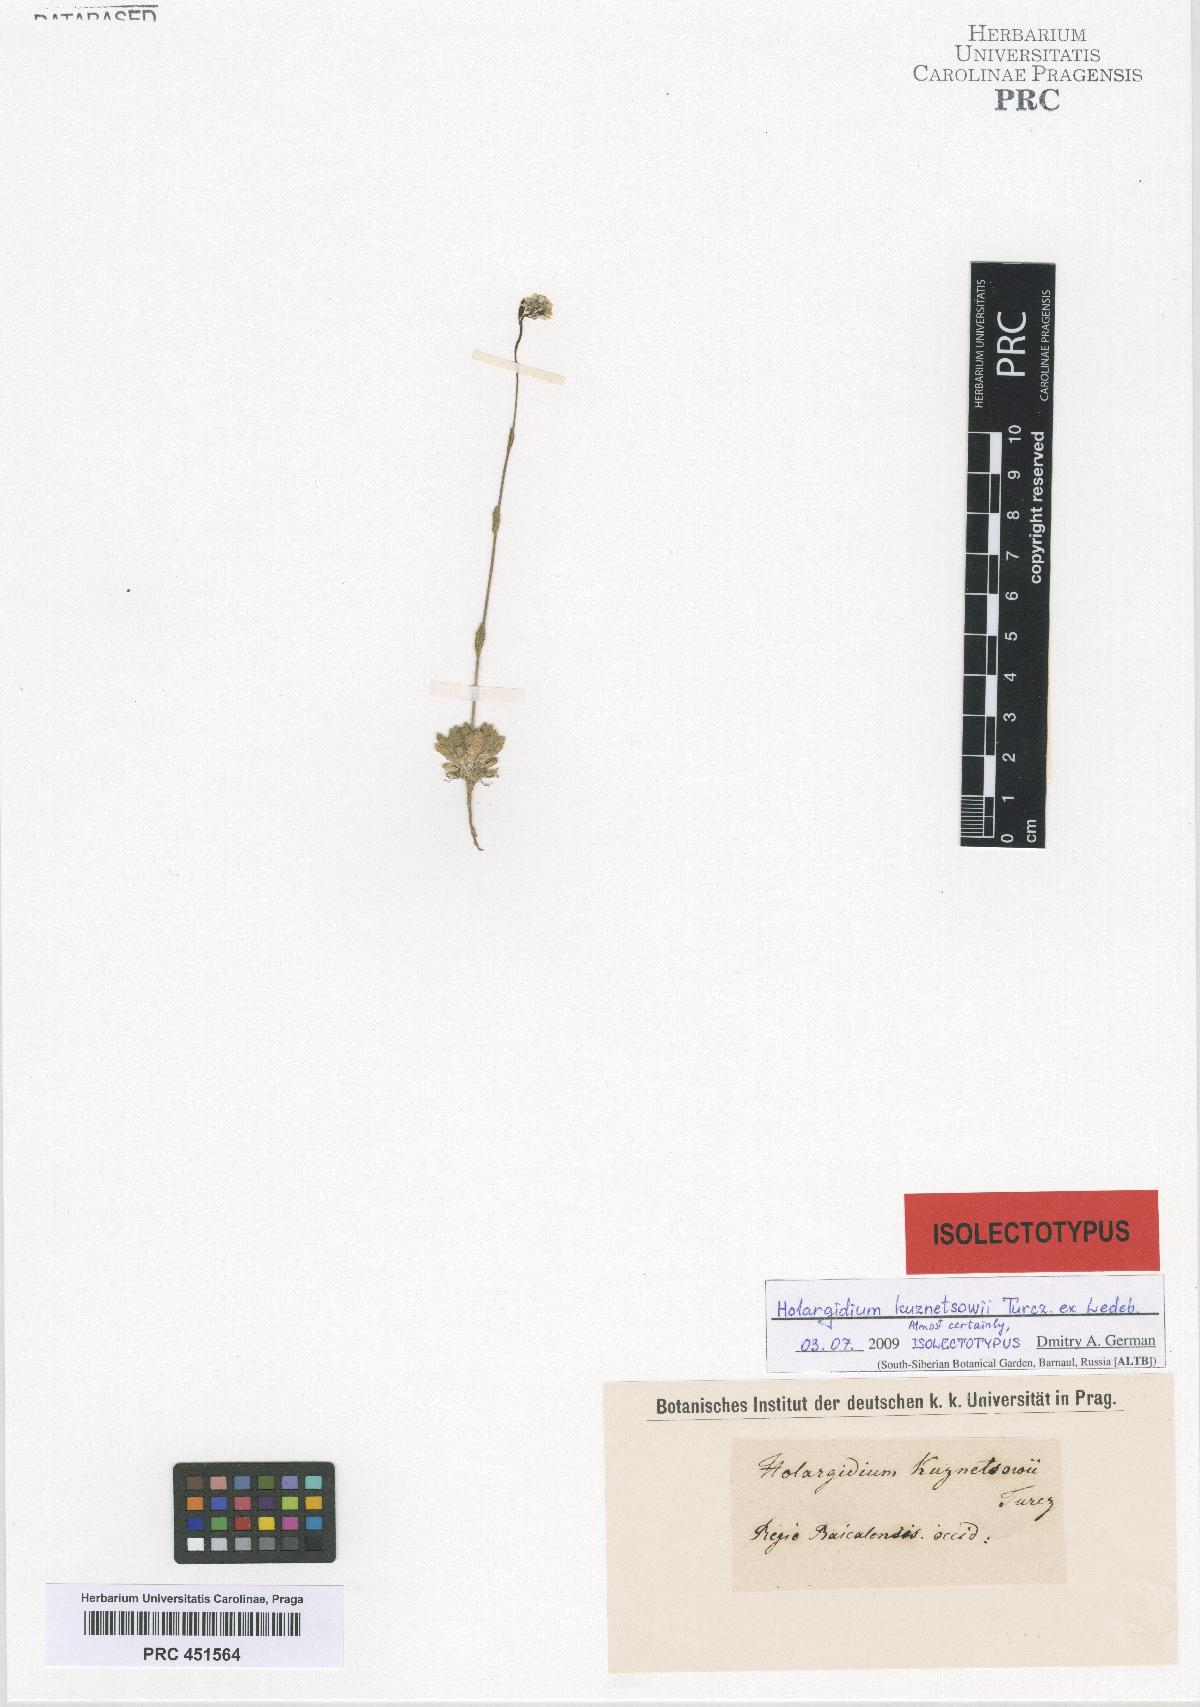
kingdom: Plantae
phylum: Tracheophyta
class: Magnoliopsida
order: Brassicales
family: Brassicaceae
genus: Draba
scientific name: Draba kusnetzowii
